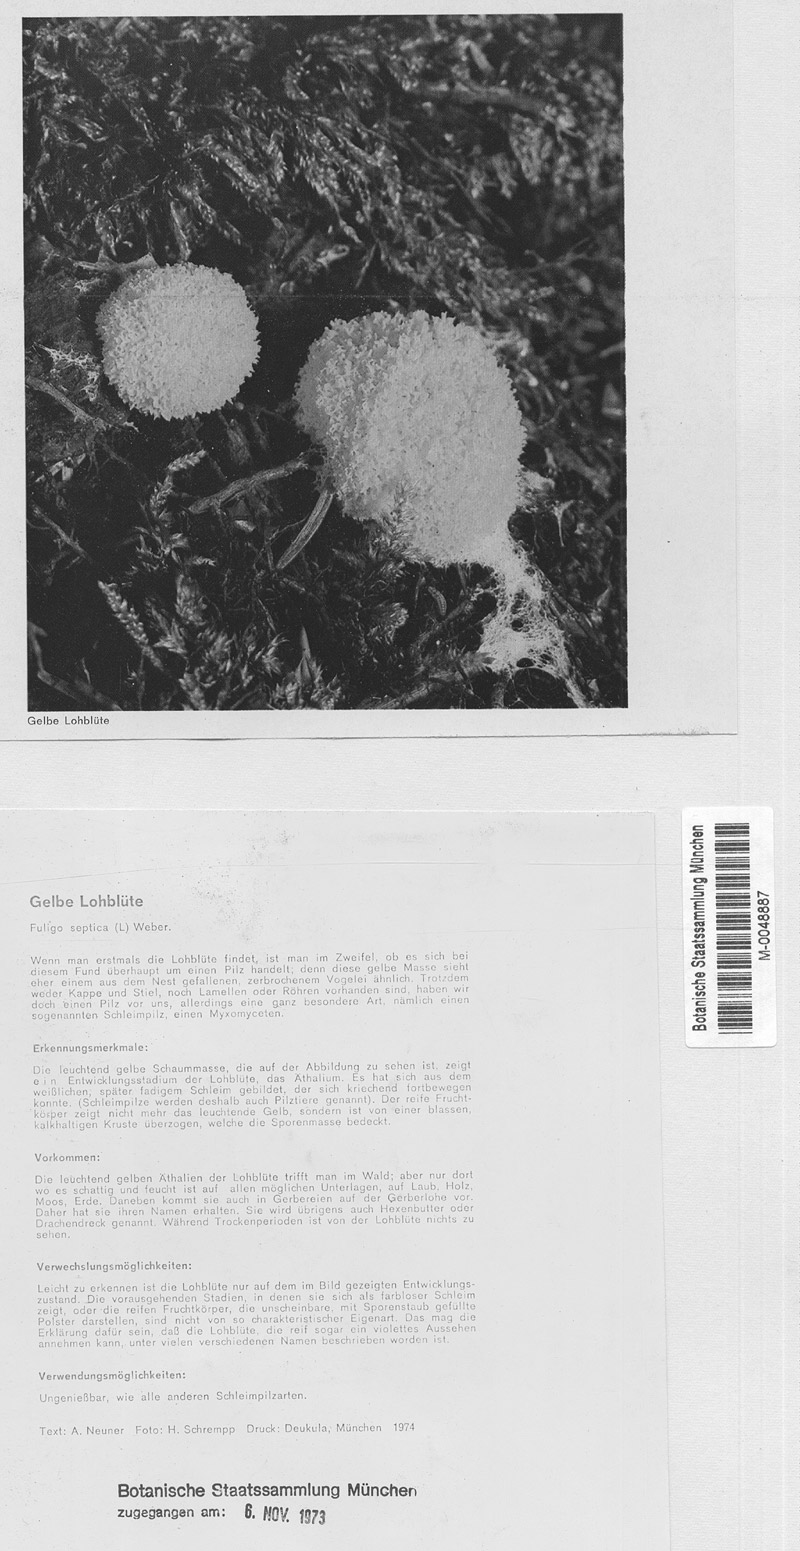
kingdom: Protozoa
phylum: Mycetozoa
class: Myxomycetes
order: Physarales
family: Physaraceae
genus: Fuligo
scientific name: Fuligo septica
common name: Dog vomit slime mold
